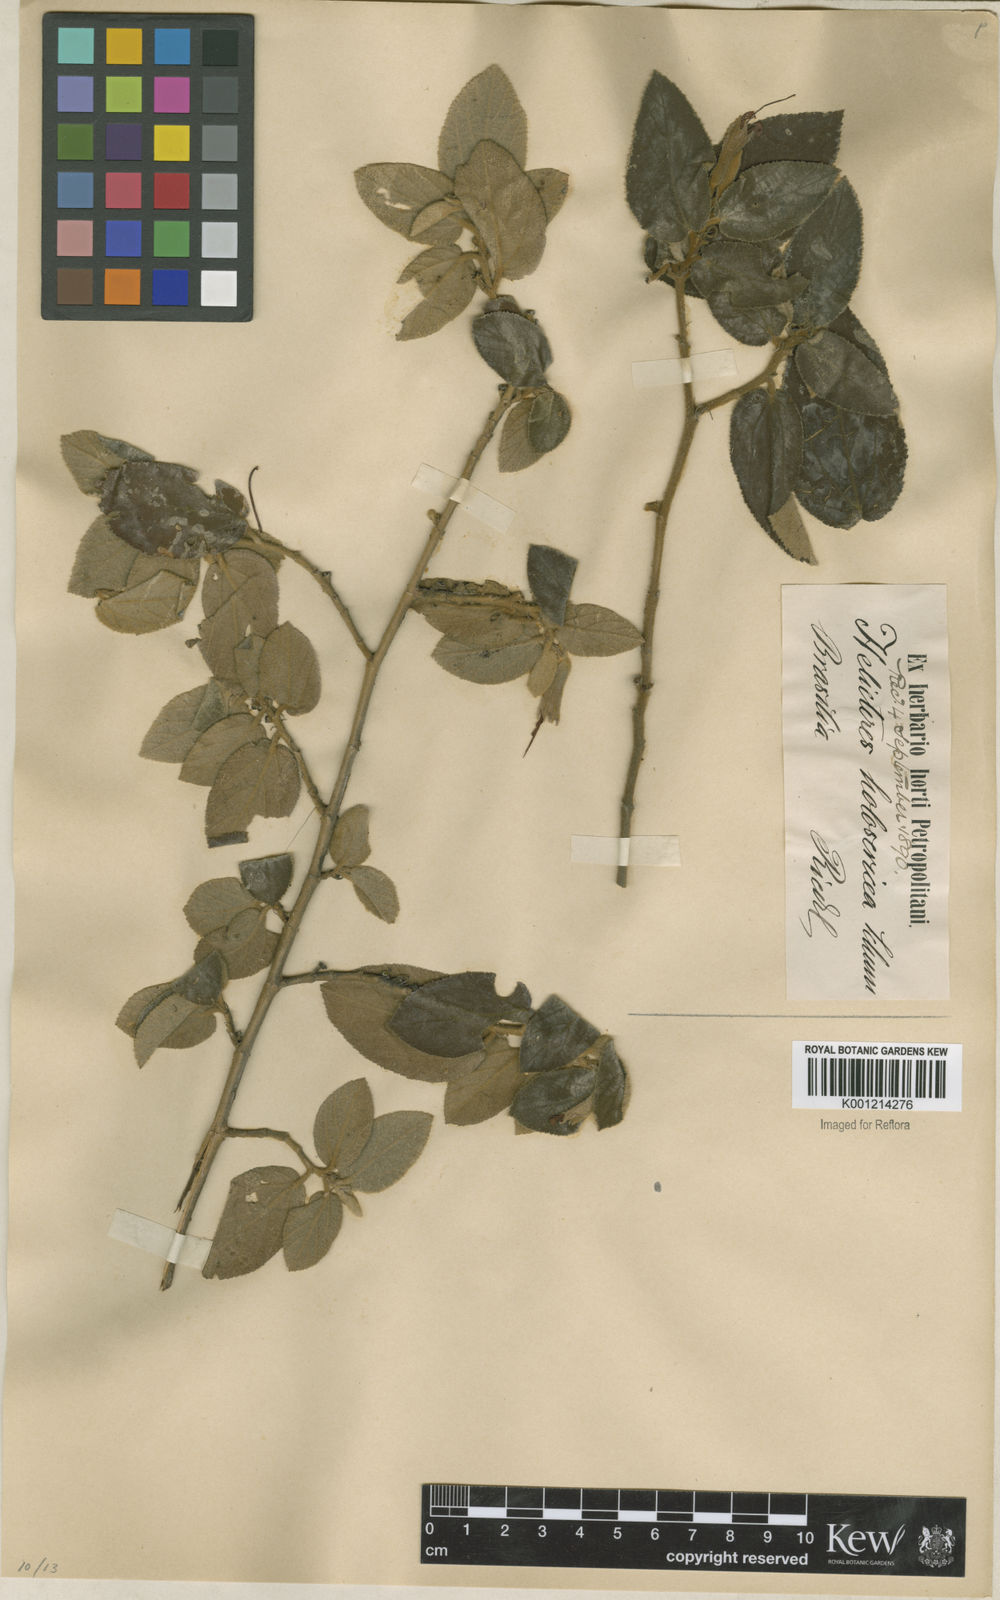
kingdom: Plantae
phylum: Tracheophyta
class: Magnoliopsida
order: Malvales
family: Malvaceae
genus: Helicteres
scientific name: Helicteres velutina
